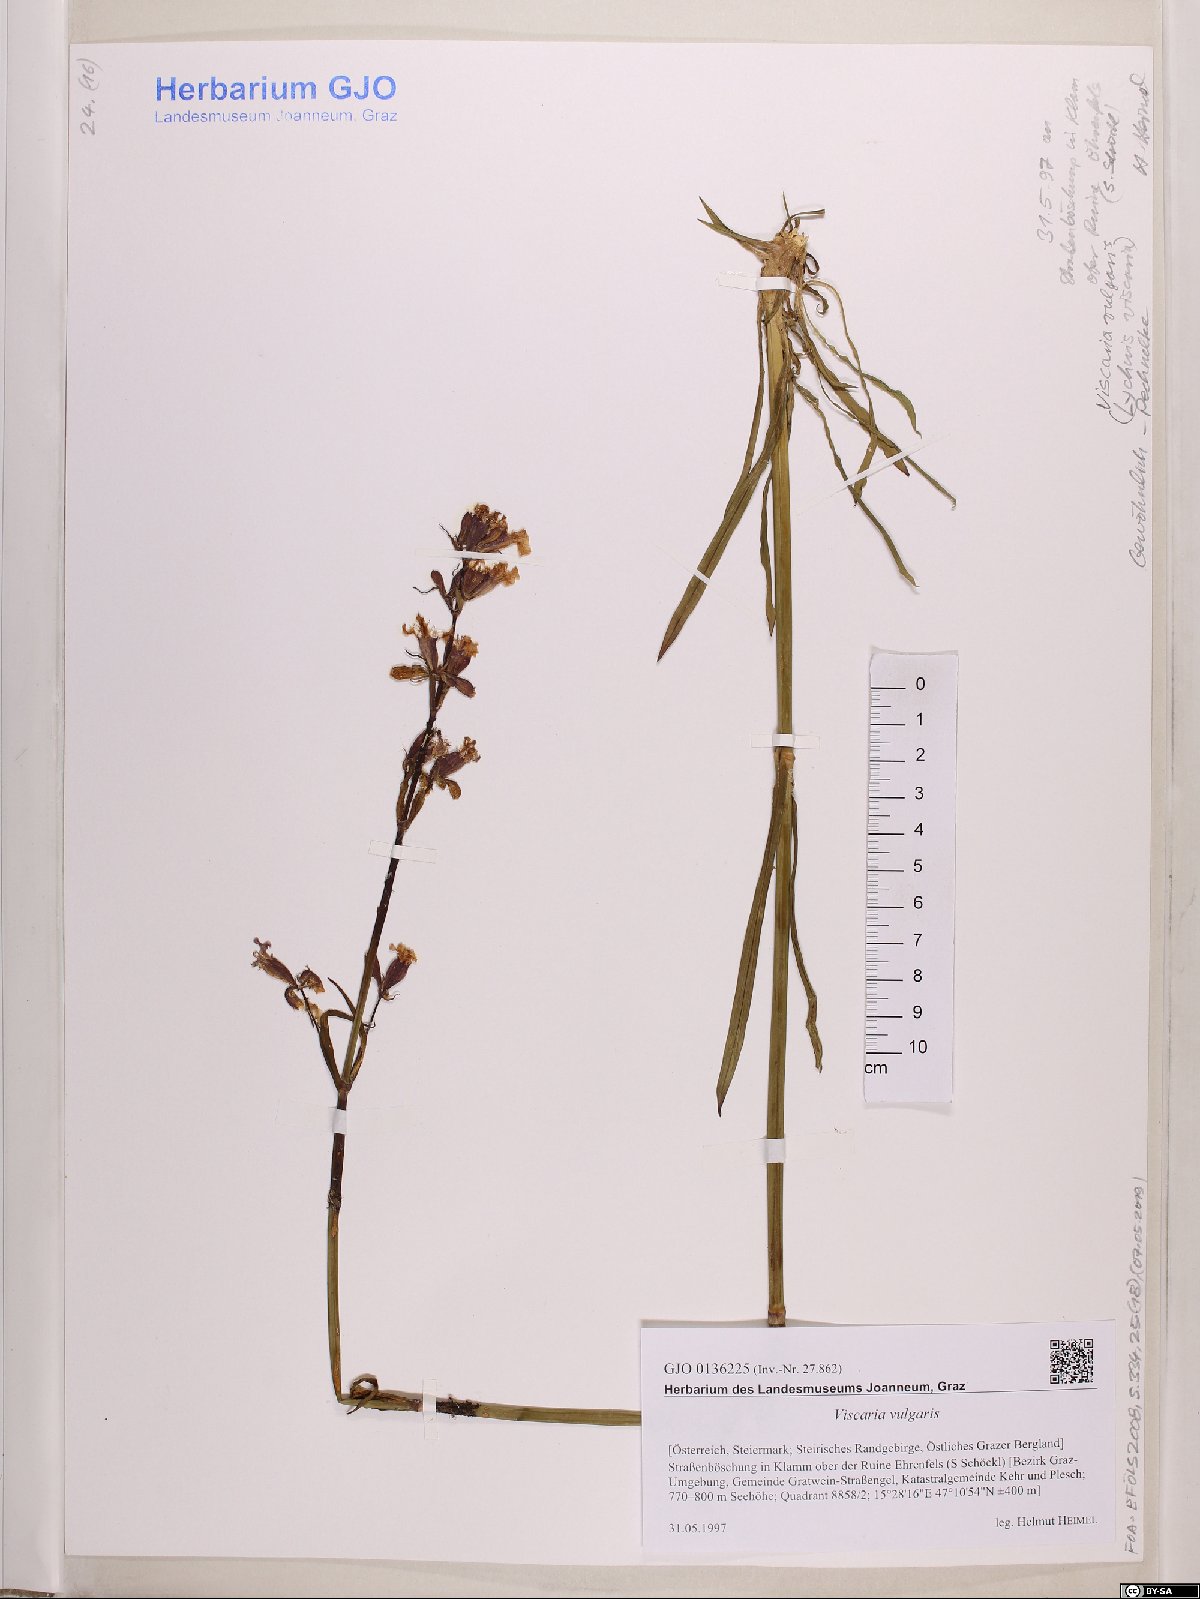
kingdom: Plantae
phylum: Tracheophyta
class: Magnoliopsida
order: Caryophyllales
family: Caryophyllaceae
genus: Viscaria
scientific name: Viscaria vulgaris
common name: Clammy campion
